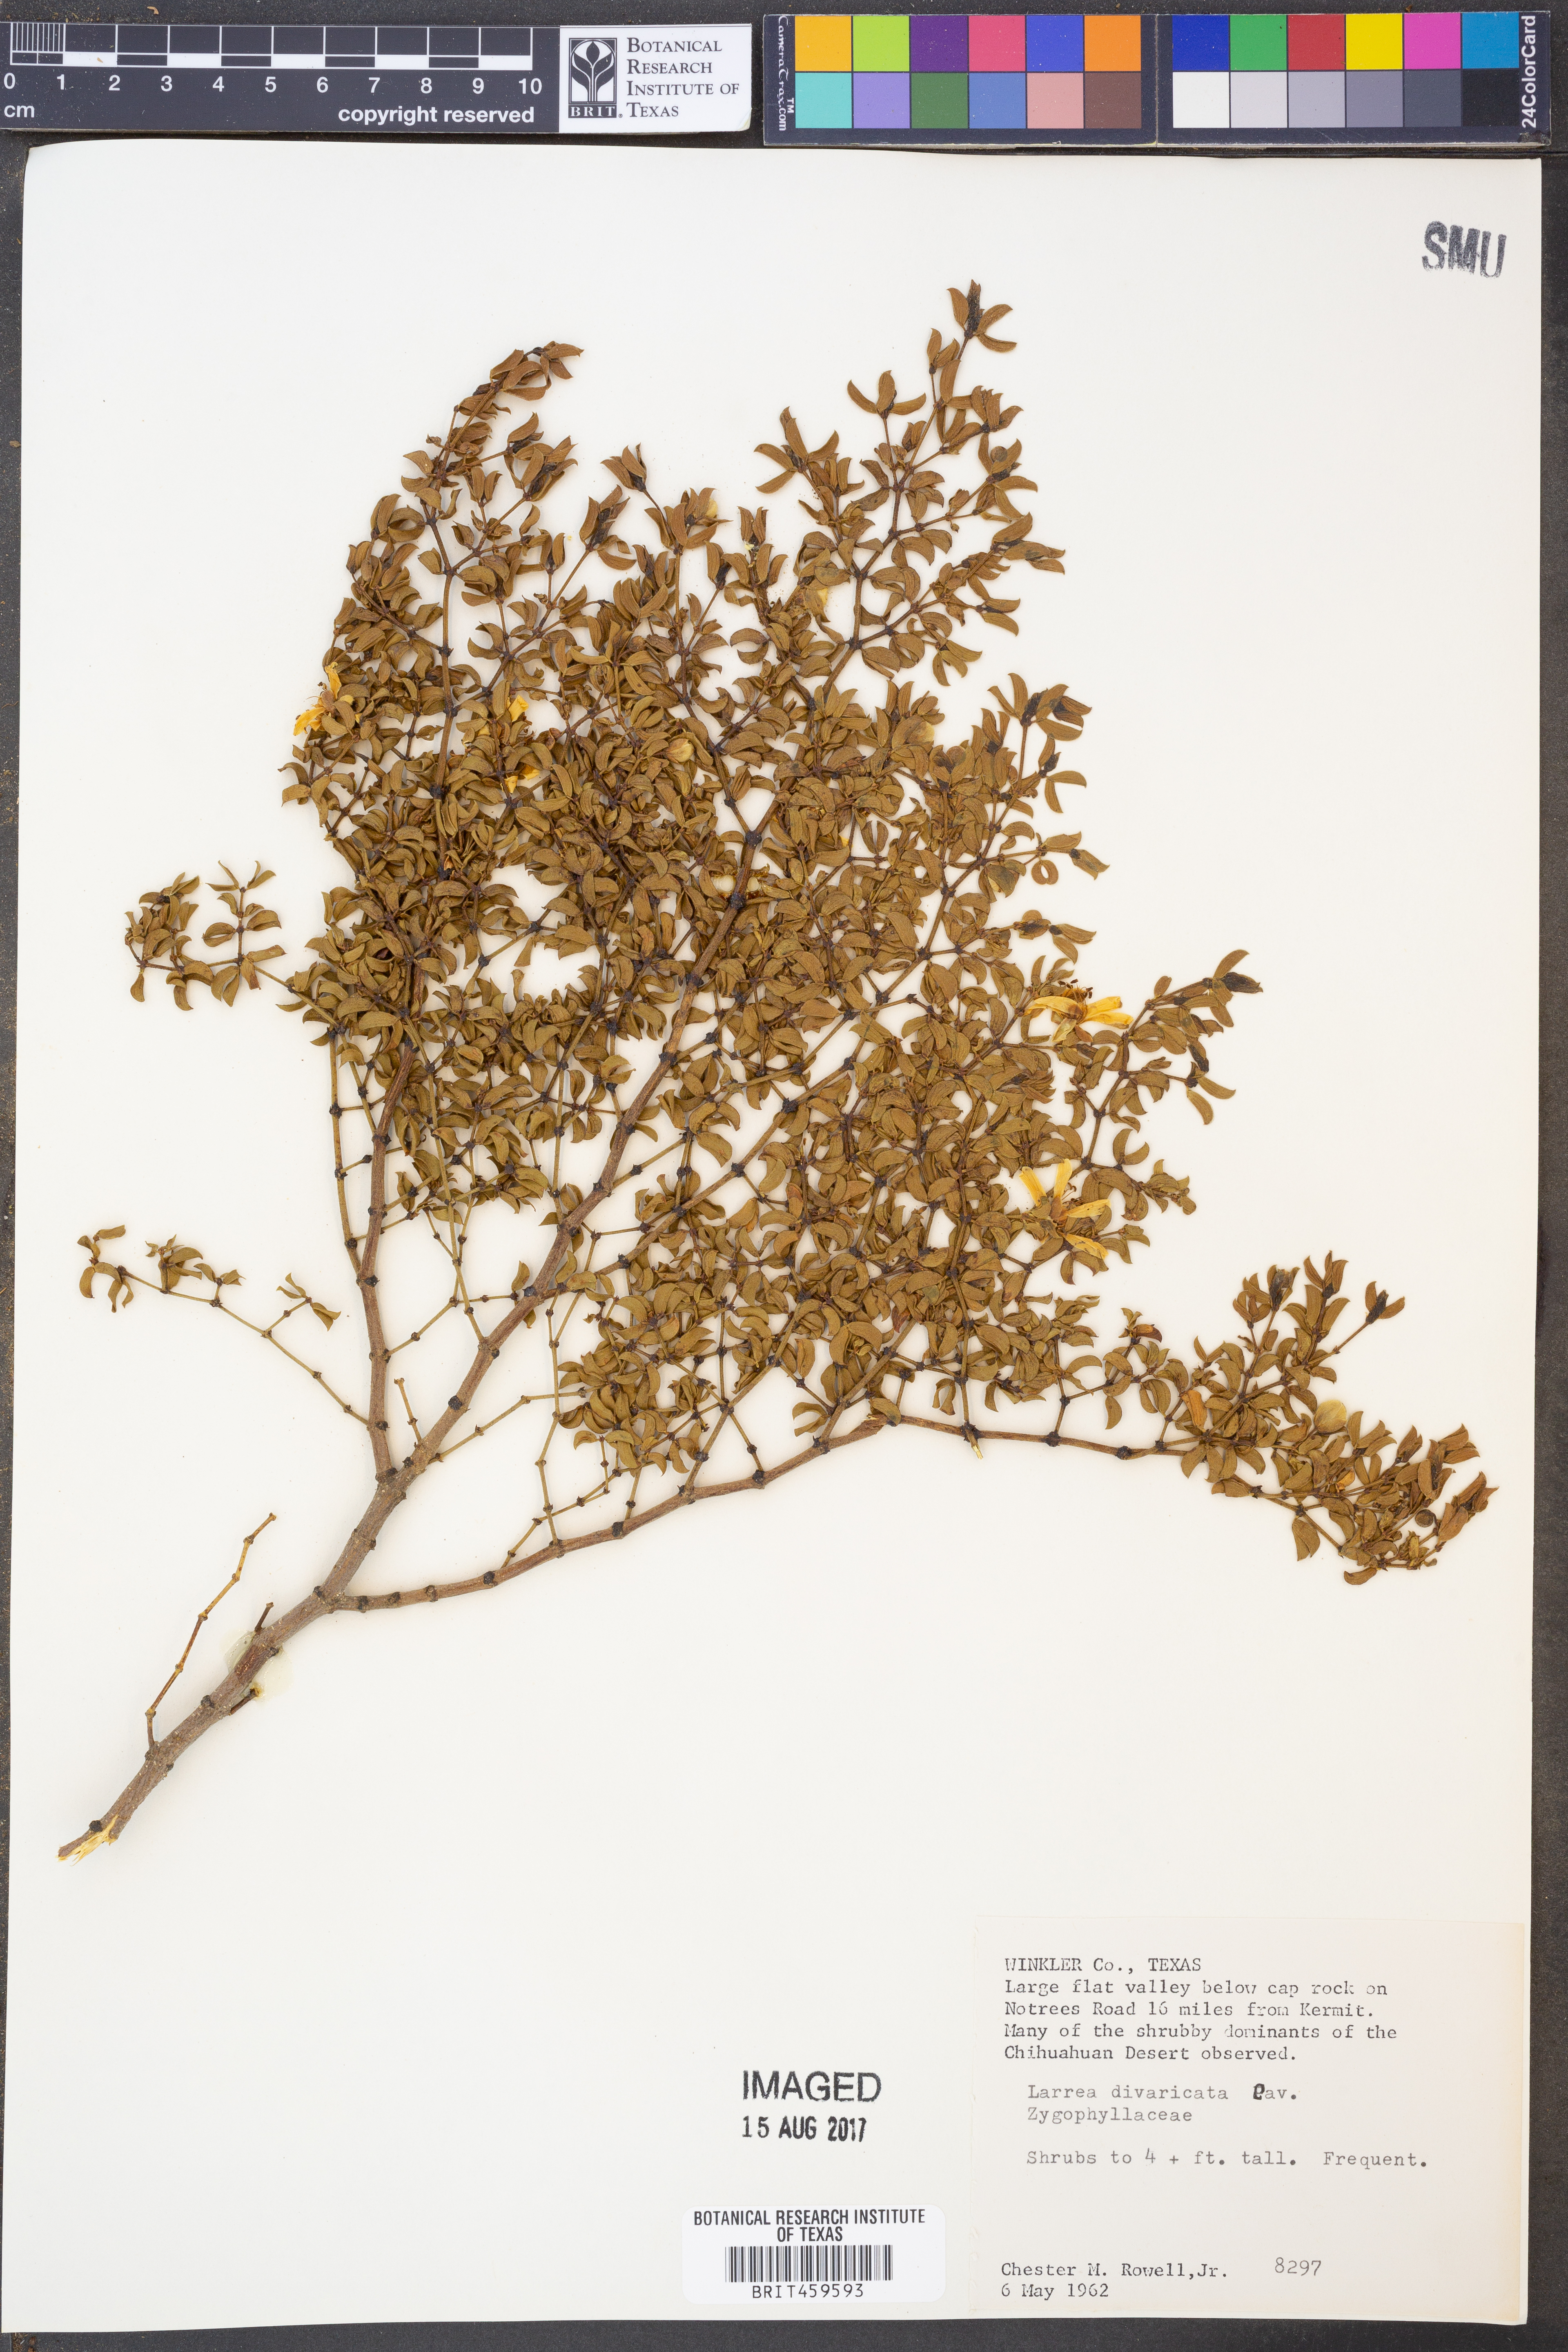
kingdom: Plantae
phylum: Tracheophyta
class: Magnoliopsida
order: Zygophyllales
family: Zygophyllaceae
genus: Larrea
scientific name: Larrea divaricata
